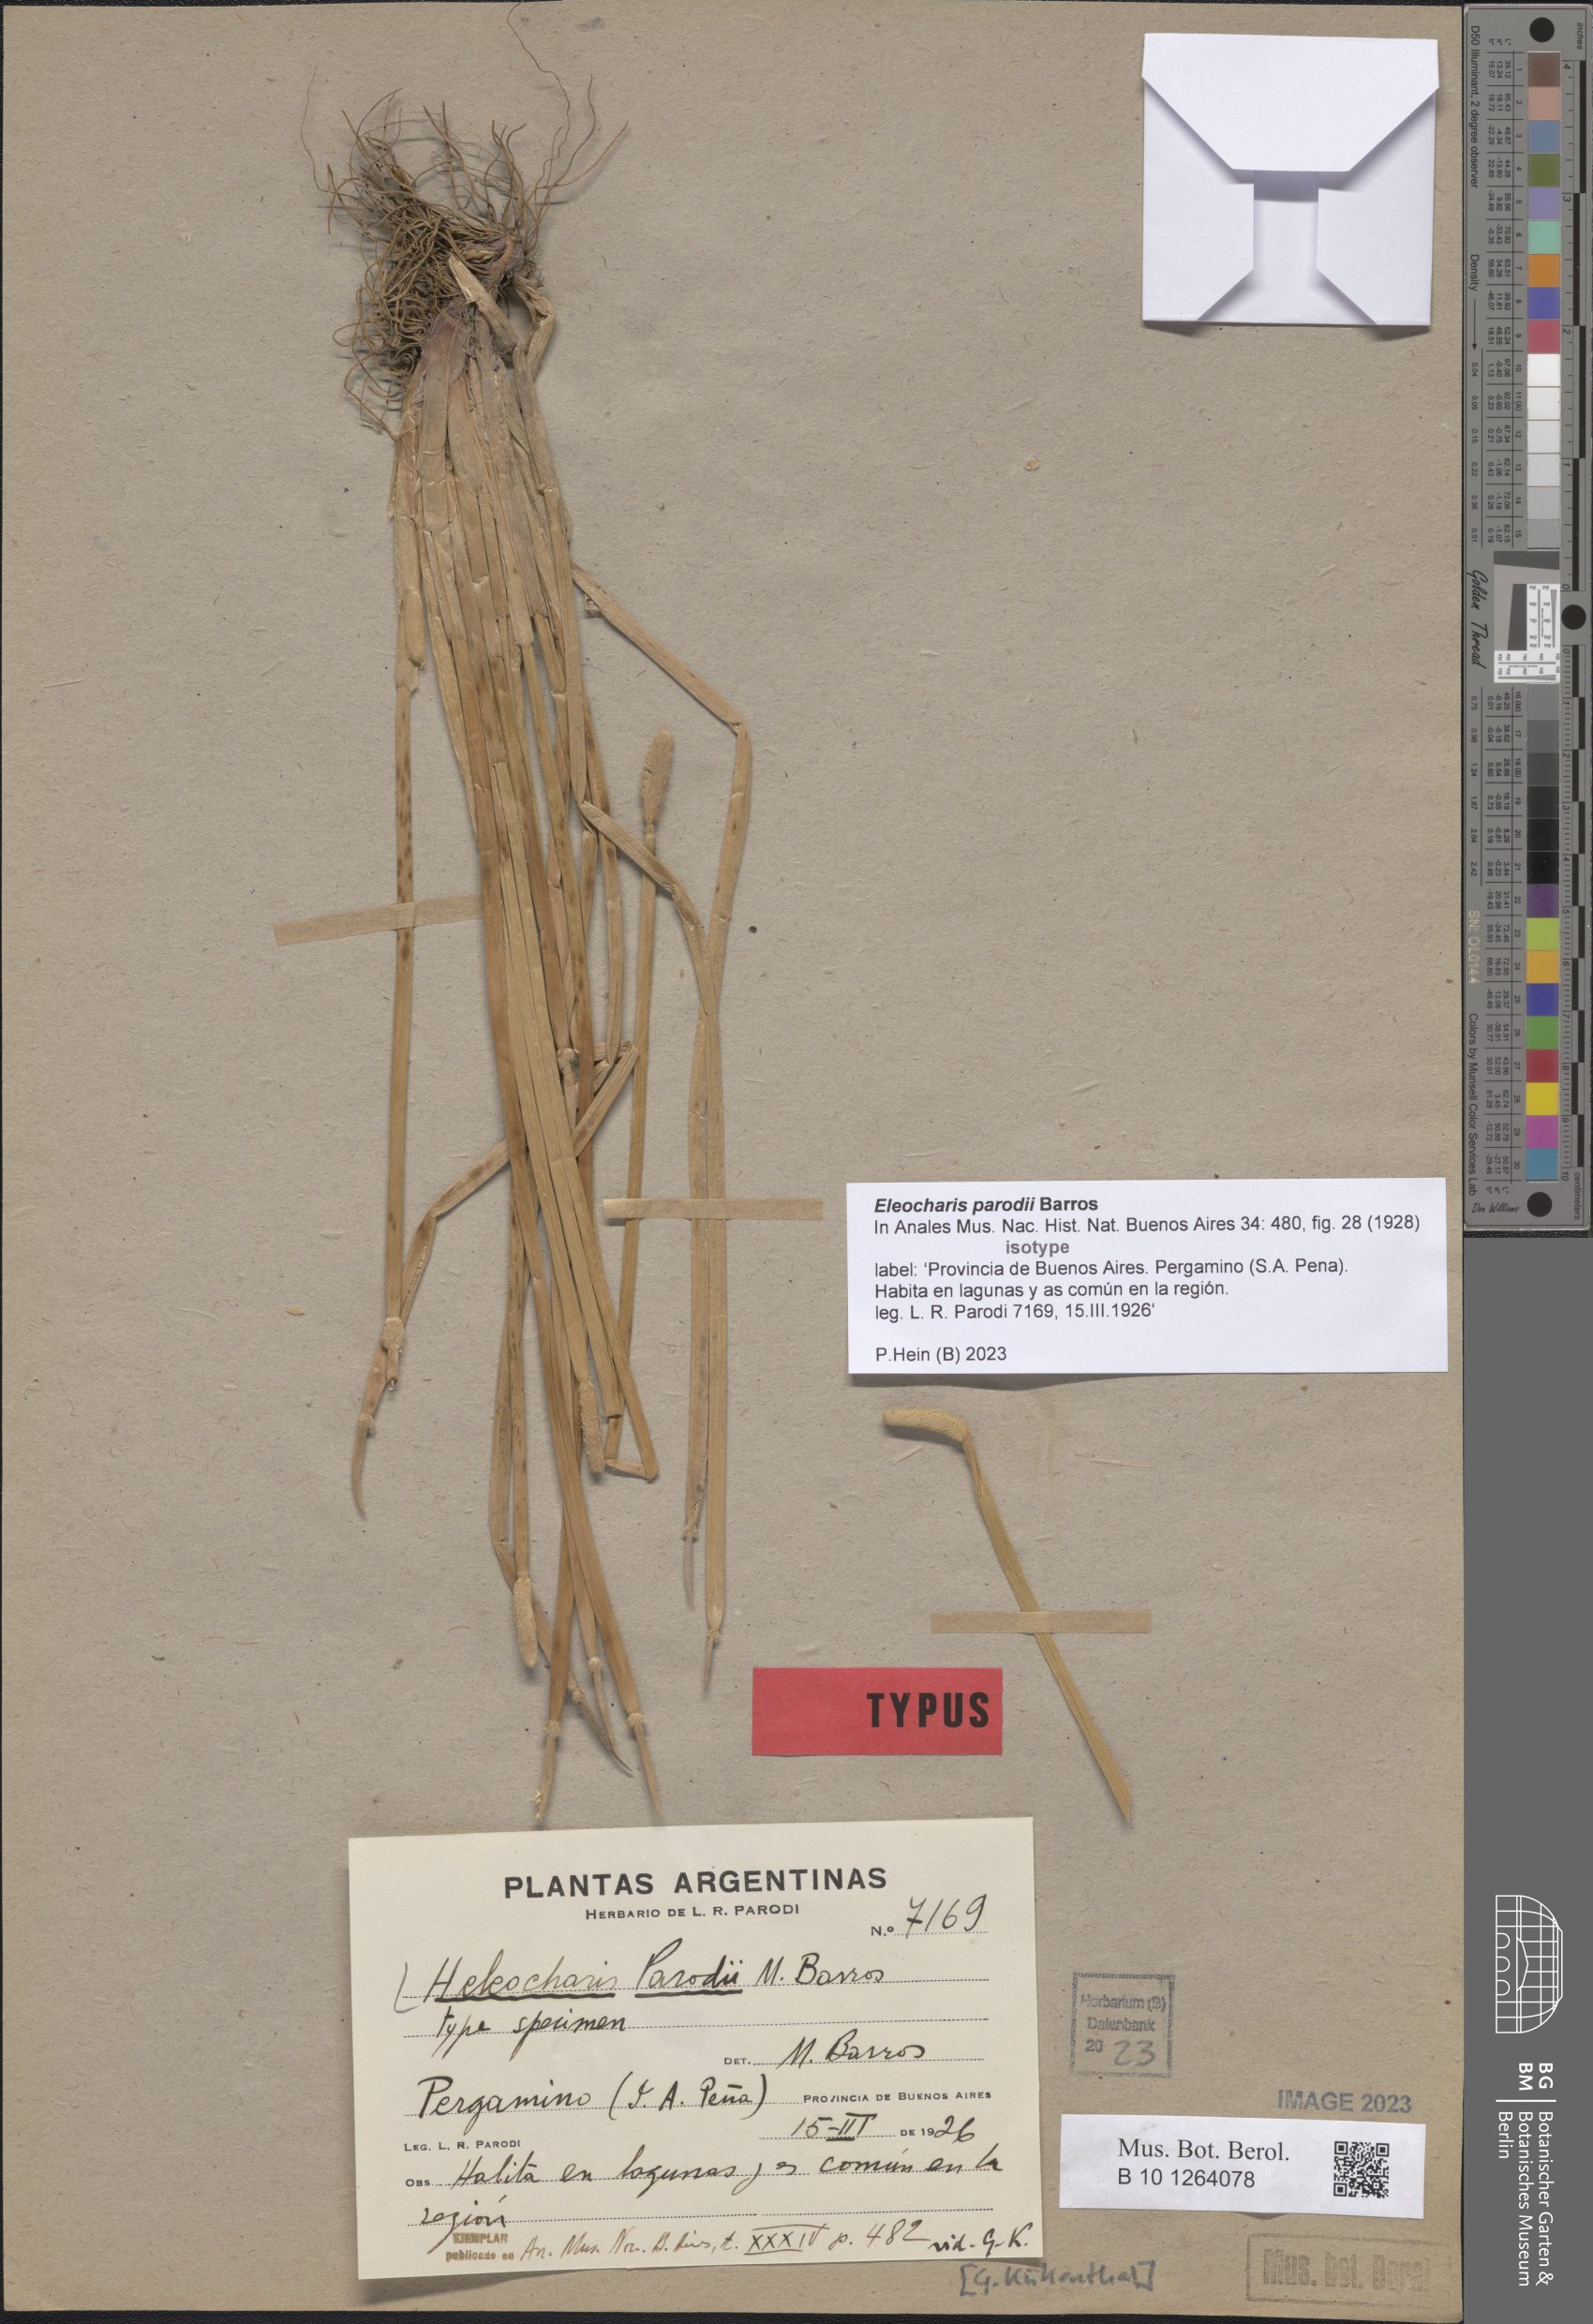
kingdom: Plantae
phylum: Tracheophyta
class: Liliopsida
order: Poales
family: Cyperaceae
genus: Eleocharis
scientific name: Eleocharis parodii
